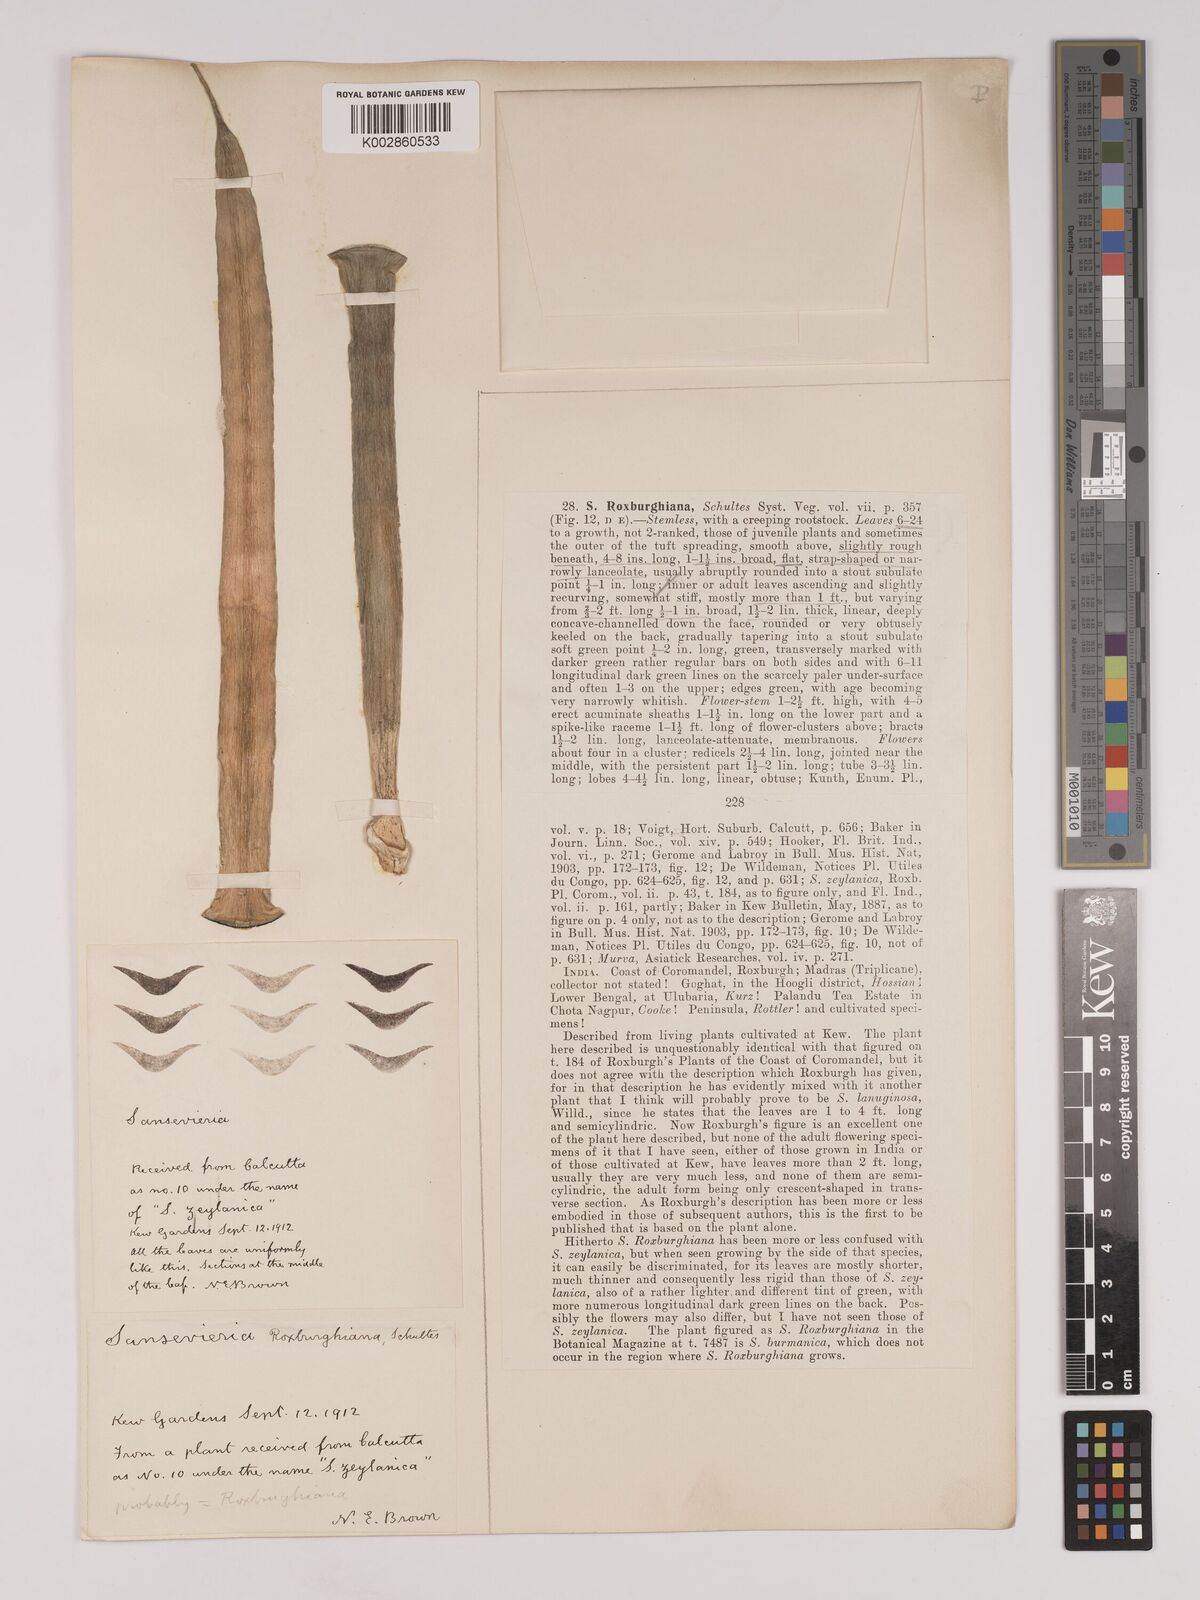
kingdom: Plantae
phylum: Tracheophyta
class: Liliopsida
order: Asparagales
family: Asparagaceae
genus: Dracaena
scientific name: Dracaena roxburghiana
